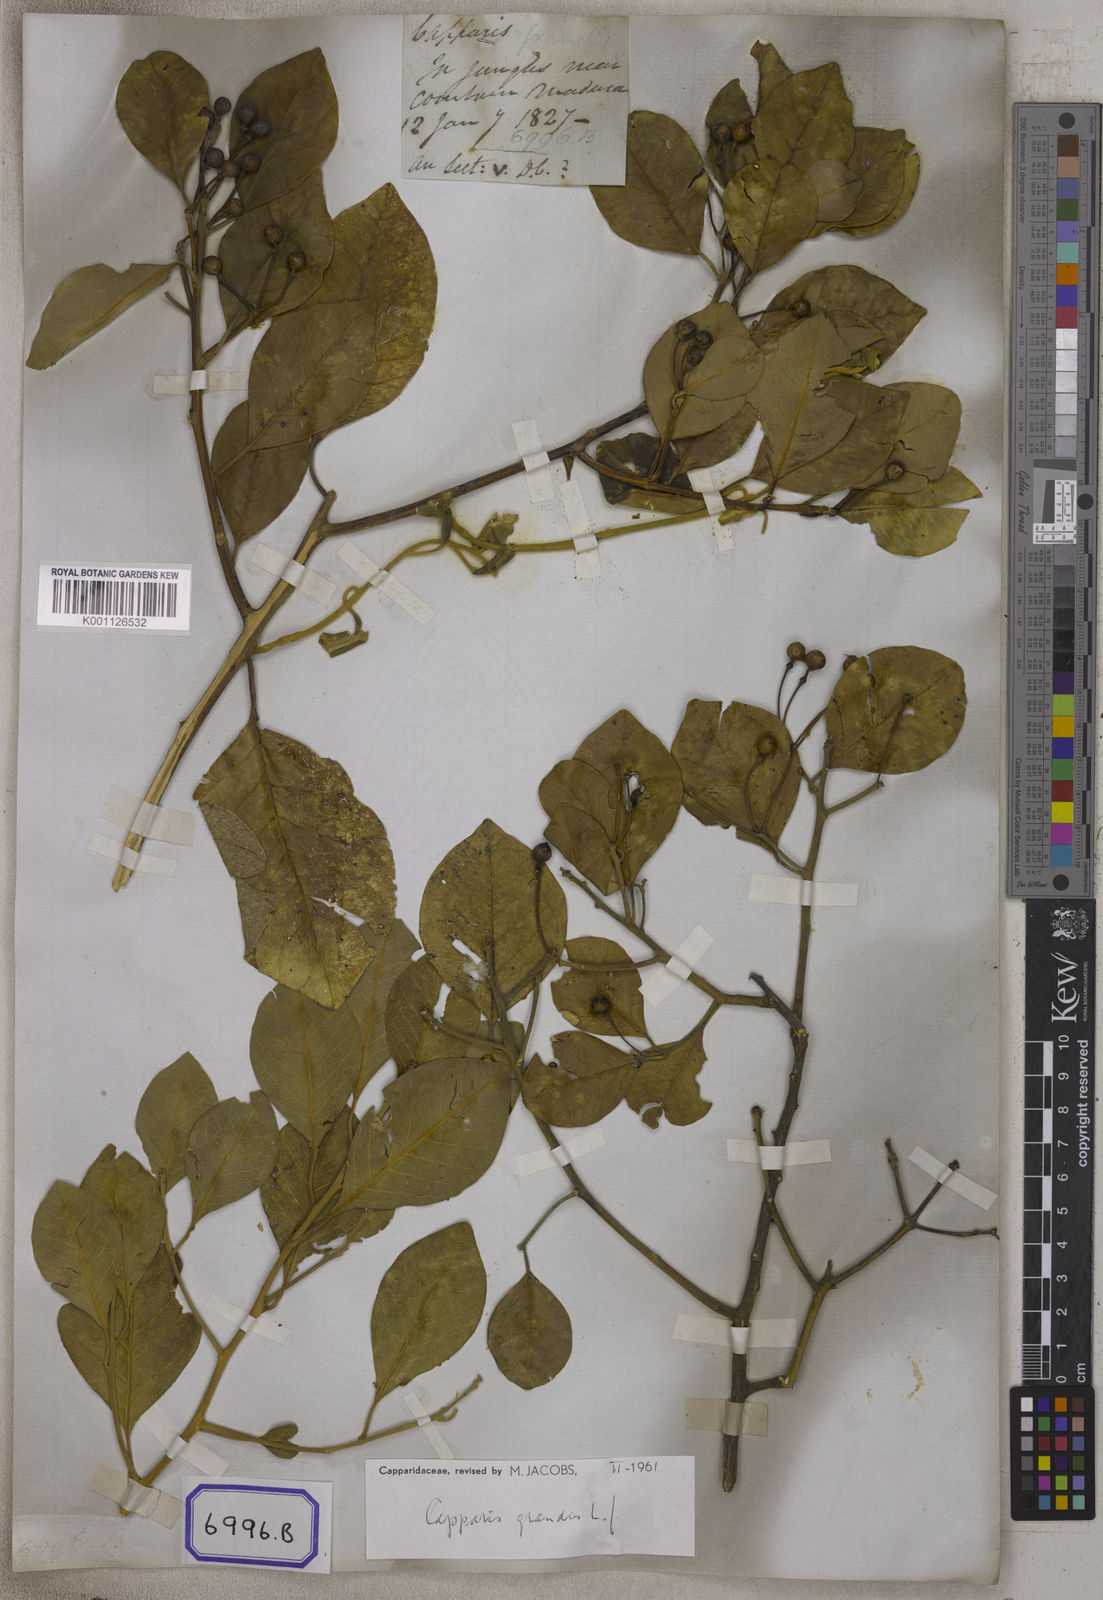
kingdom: Plantae
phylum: Tracheophyta
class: Magnoliopsida
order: Brassicales
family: Capparaceae
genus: Capparis
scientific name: Capparis grandis
